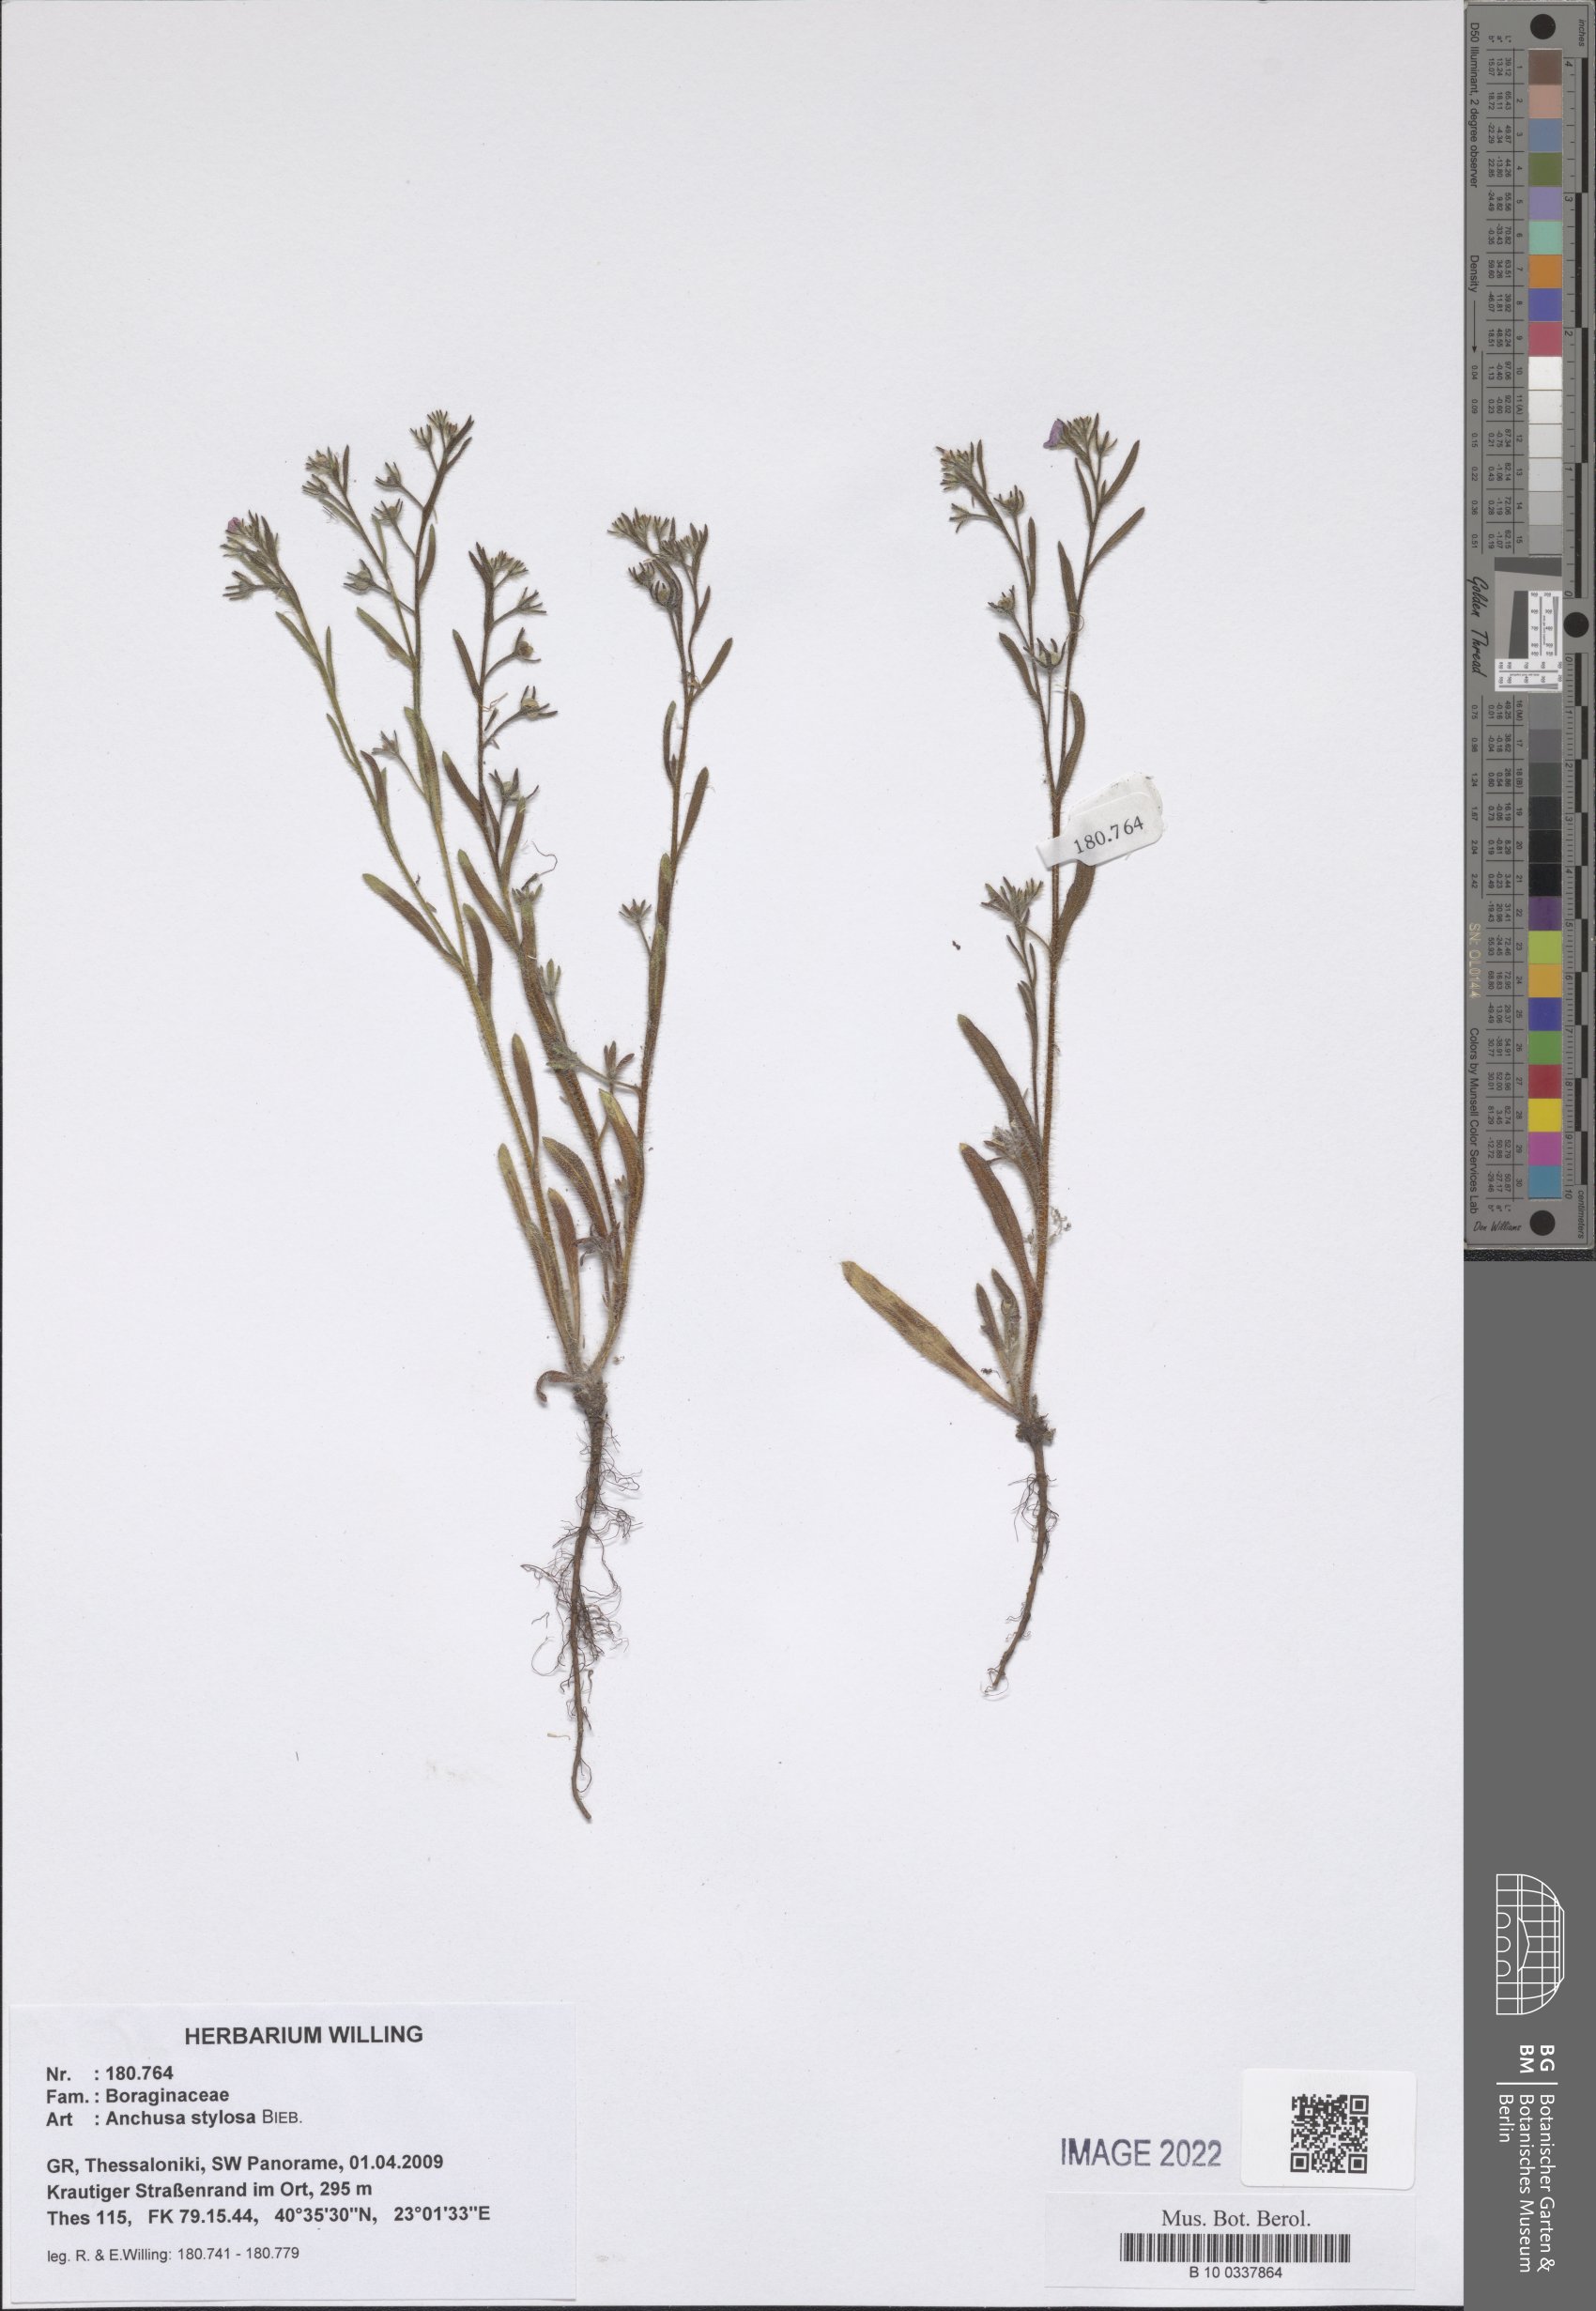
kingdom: Plantae
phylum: Tracheophyta
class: Magnoliopsida
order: Boraginales
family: Boraginaceae
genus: Anchusa
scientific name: Anchusa stylosa
